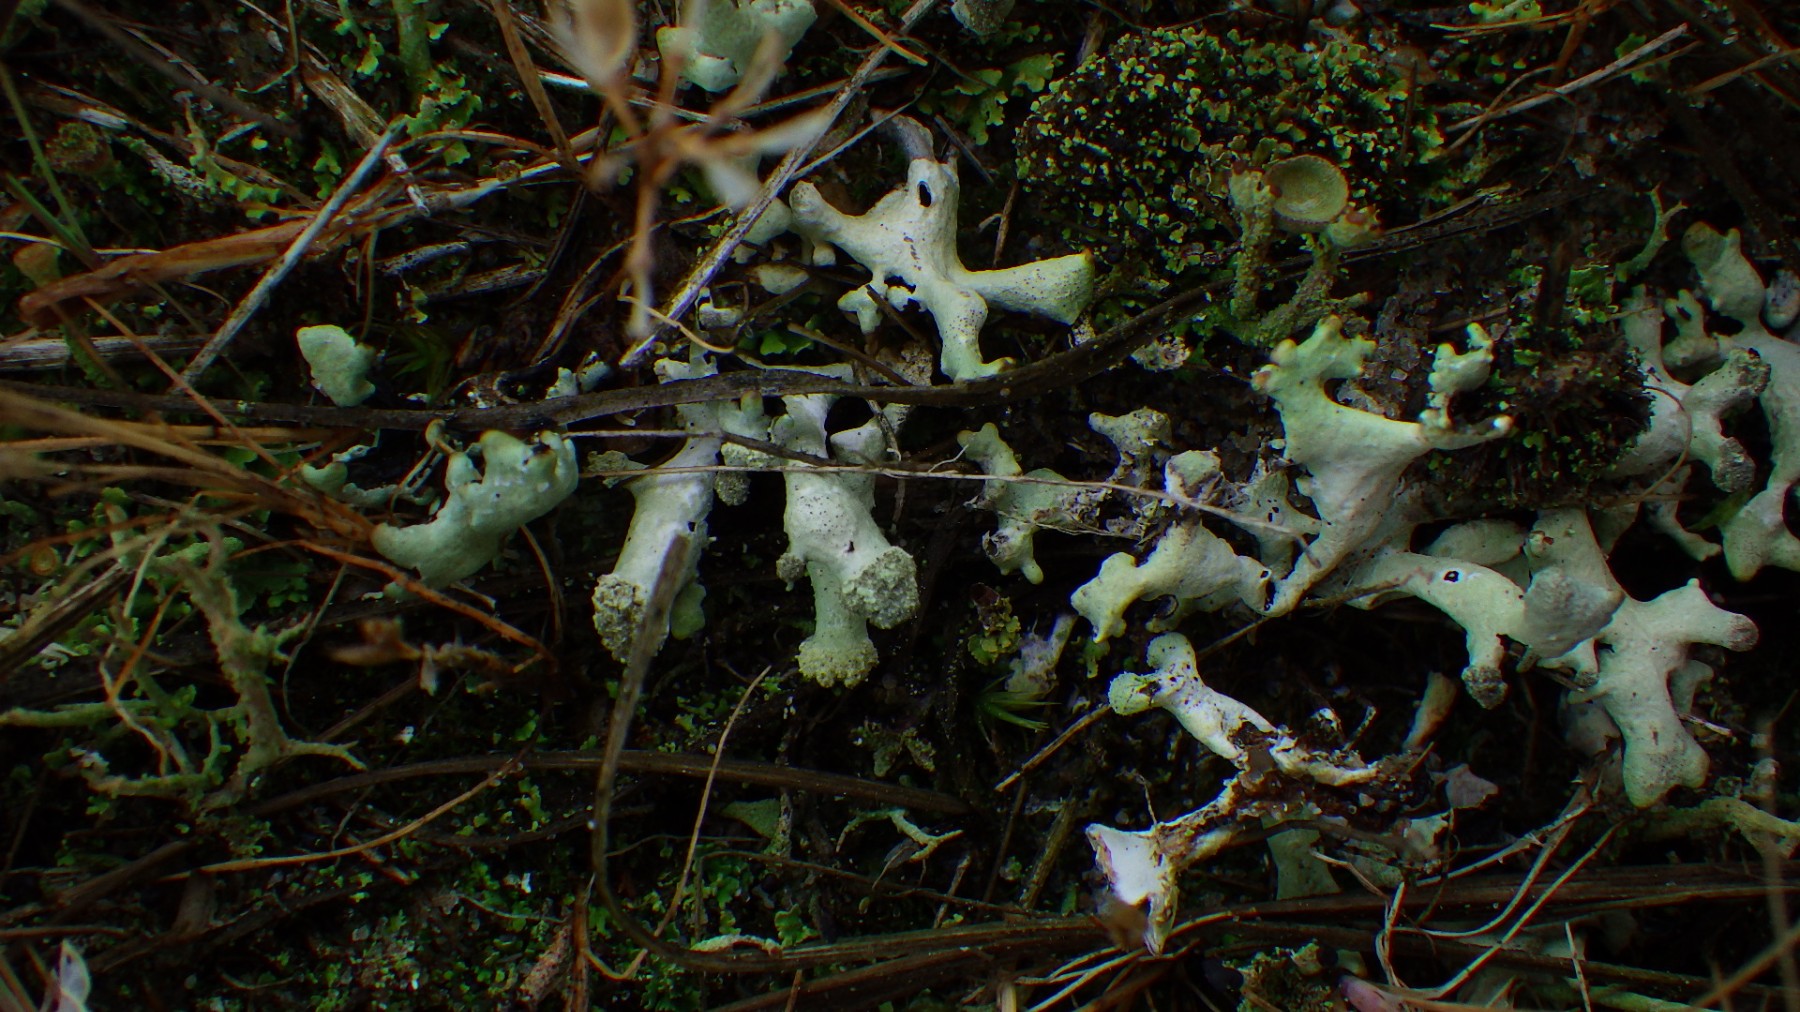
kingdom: Fungi
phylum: Ascomycota
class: Lecanoromycetes
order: Lecanorales
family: Parmeliaceae
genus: Hypogymnia
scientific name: Hypogymnia tubulosa
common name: finger-kvistlav
